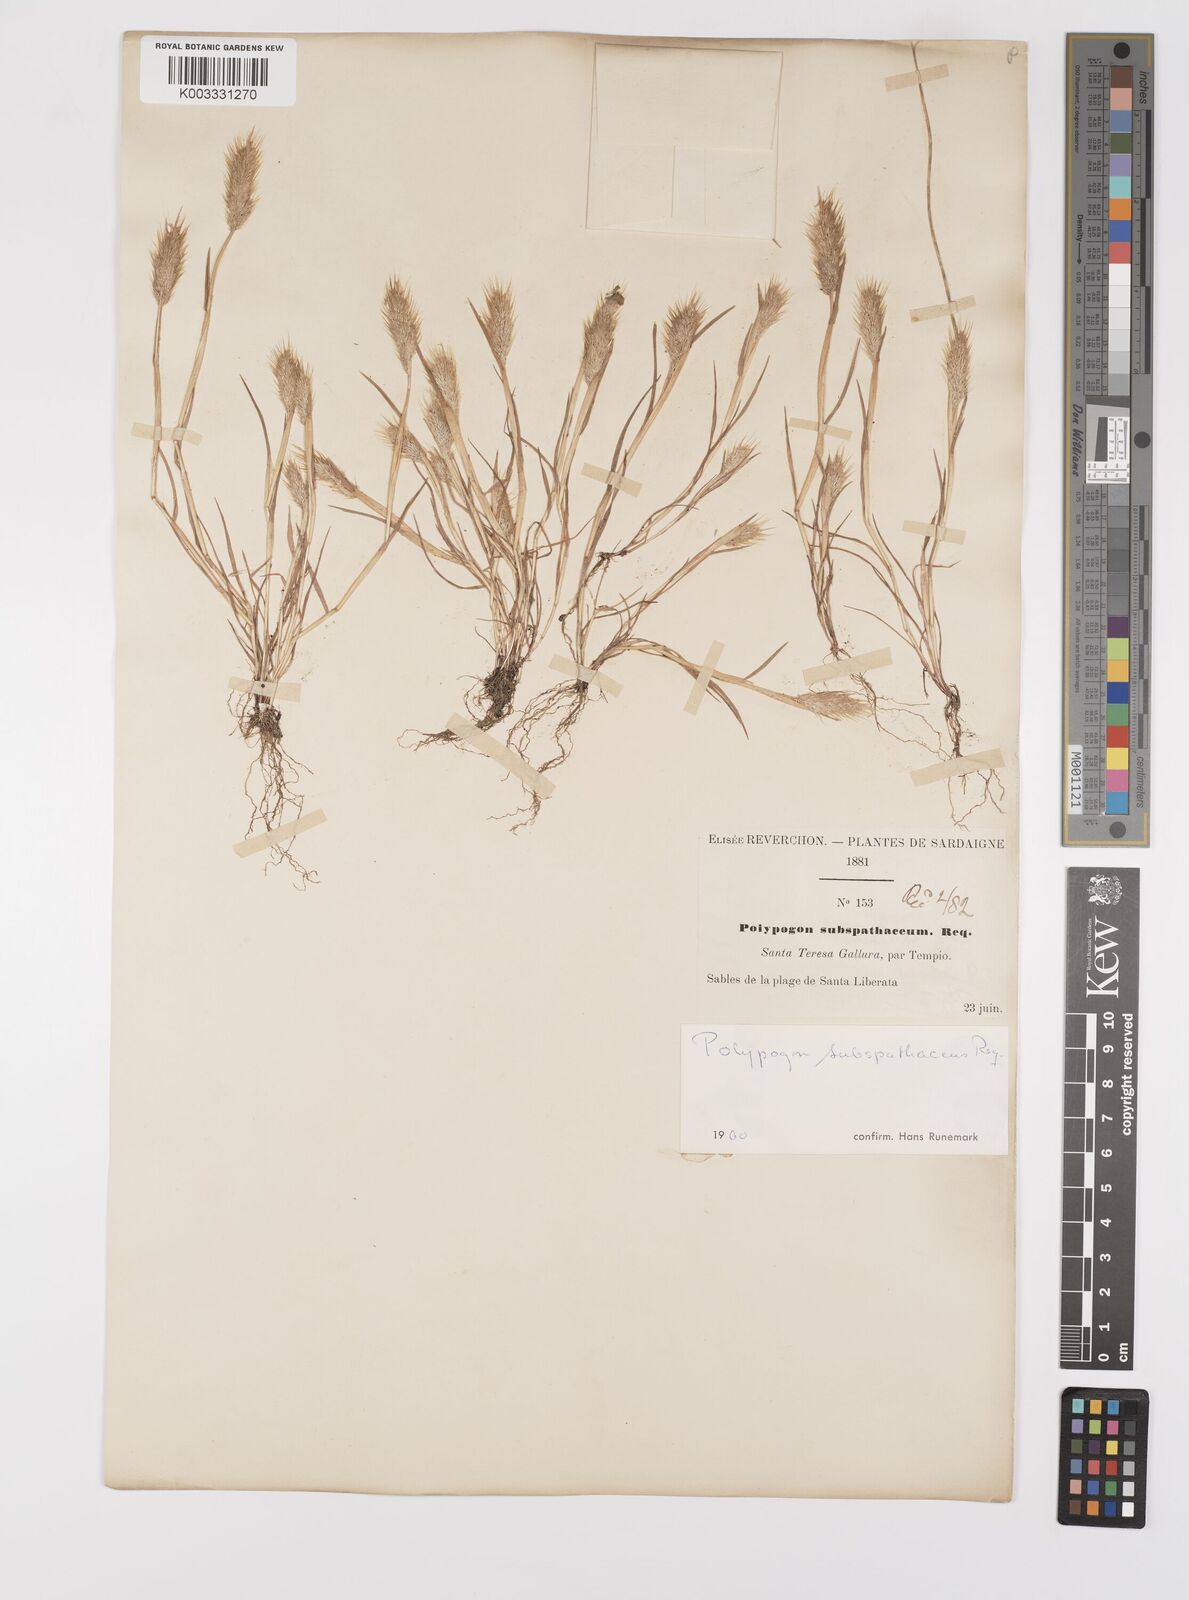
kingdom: Plantae
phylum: Tracheophyta
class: Liliopsida
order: Poales
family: Poaceae
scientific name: Poaceae
